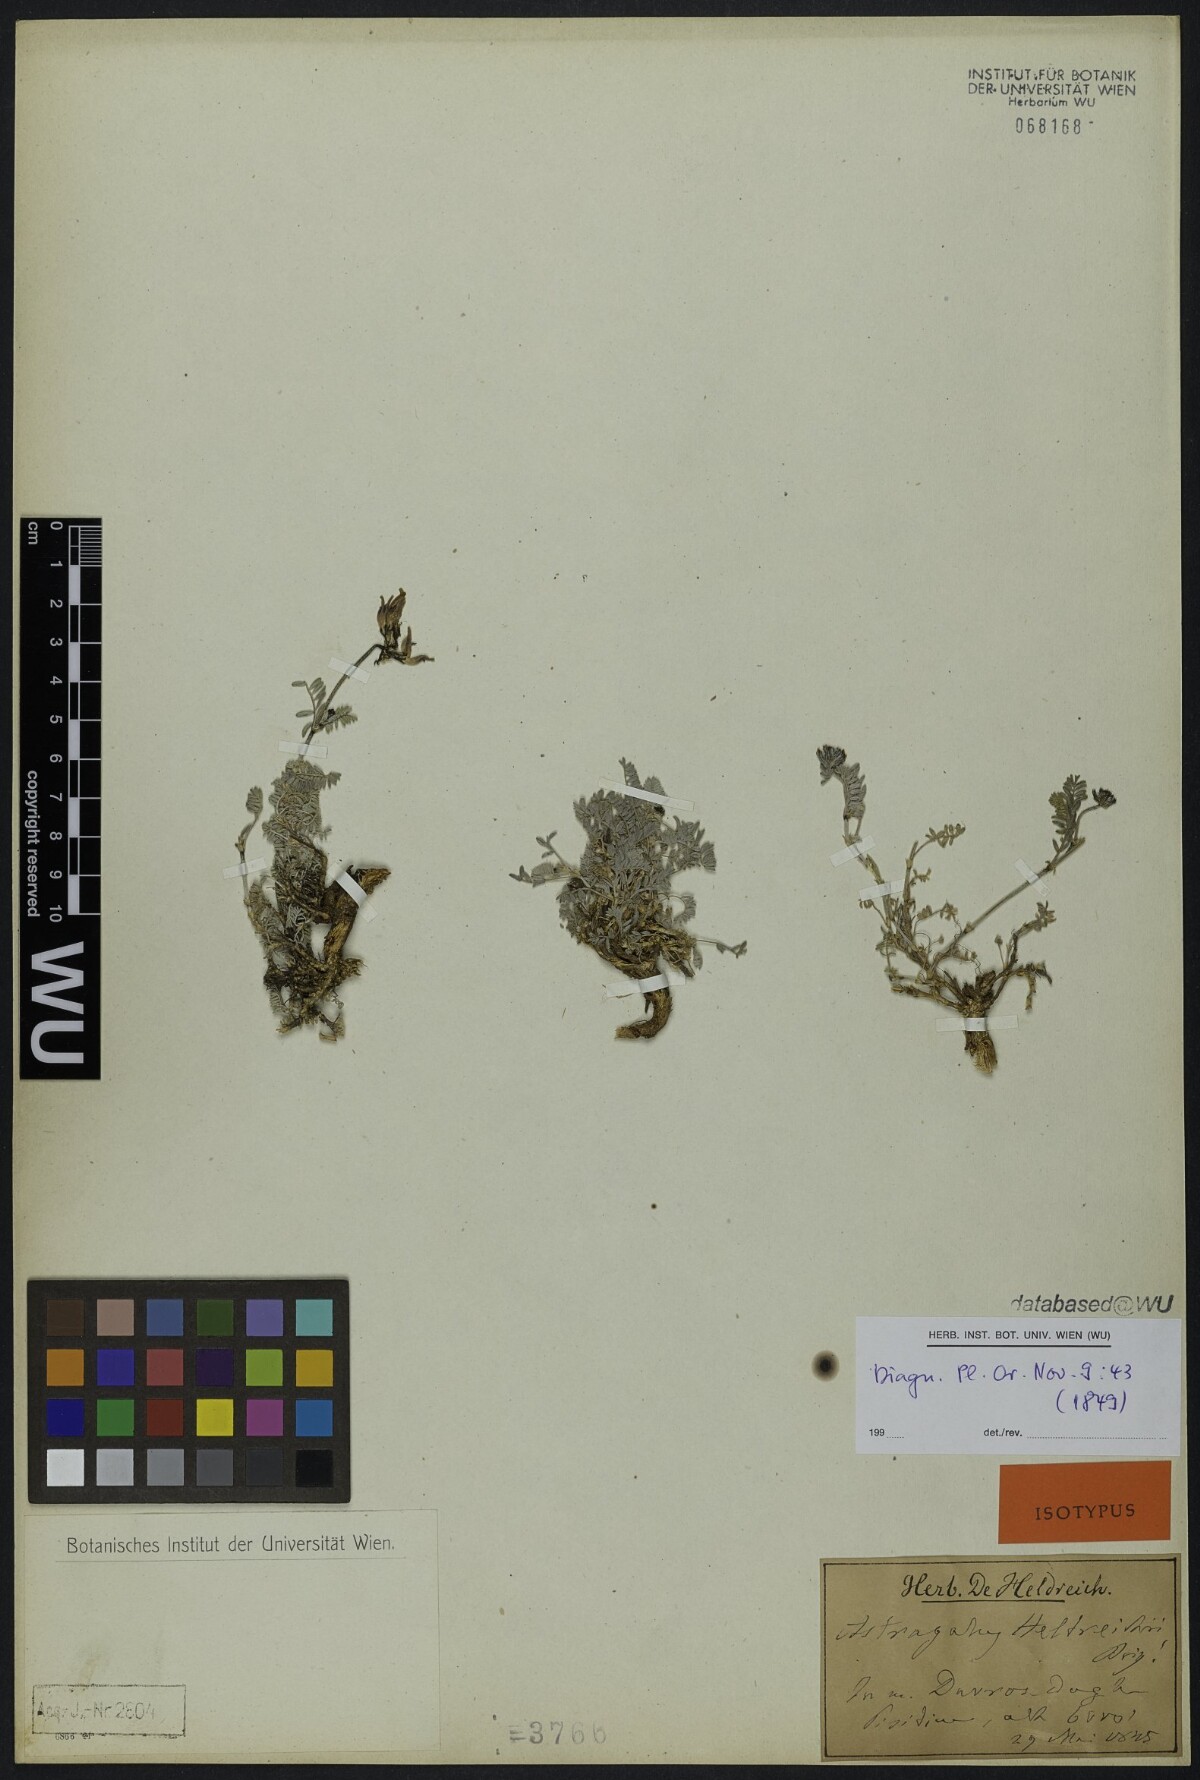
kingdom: Plantae
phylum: Tracheophyta
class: Magnoliopsida
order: Fabales
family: Fabaceae
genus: Astragalus
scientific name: Astragalus heldreichii
